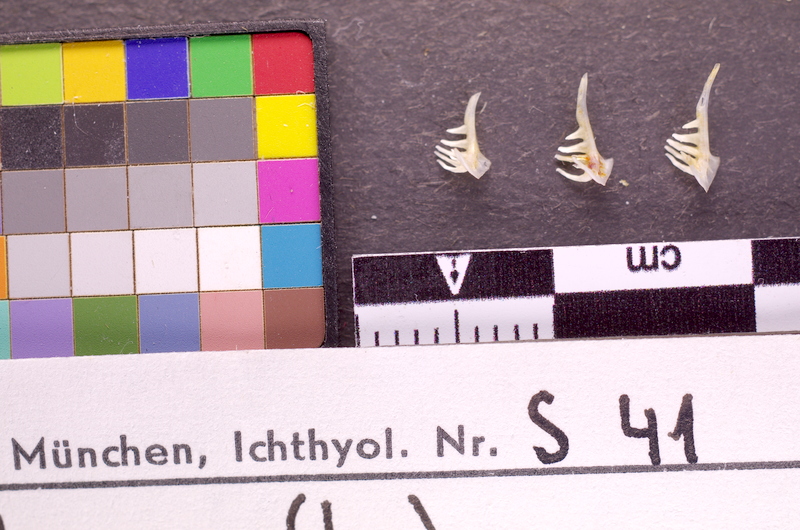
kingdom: Animalia
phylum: Chordata
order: Cypriniformes
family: Cyprinidae
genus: Alburnus
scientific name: Alburnus alburnus
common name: Bleak
